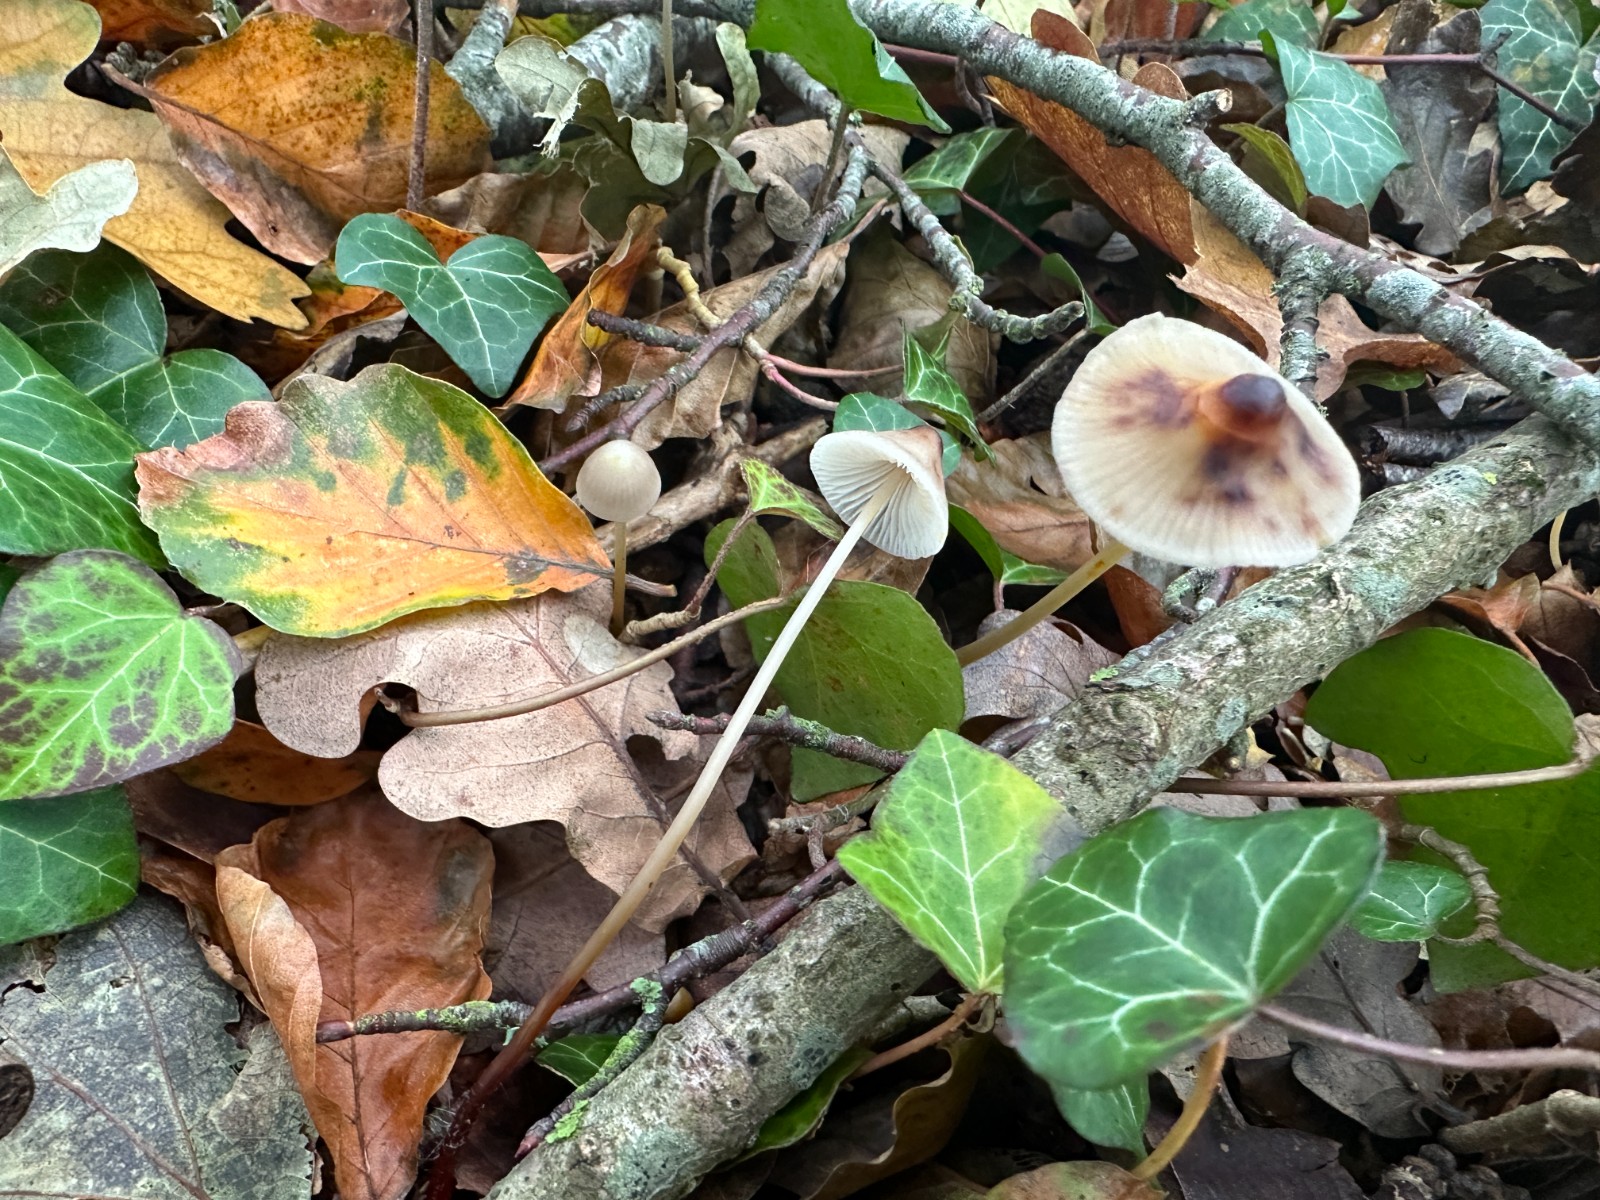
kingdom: Fungi
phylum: Basidiomycota
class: Agaricomycetes
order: Agaricales
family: Mycenaceae
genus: Mycena
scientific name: Mycena crocata
